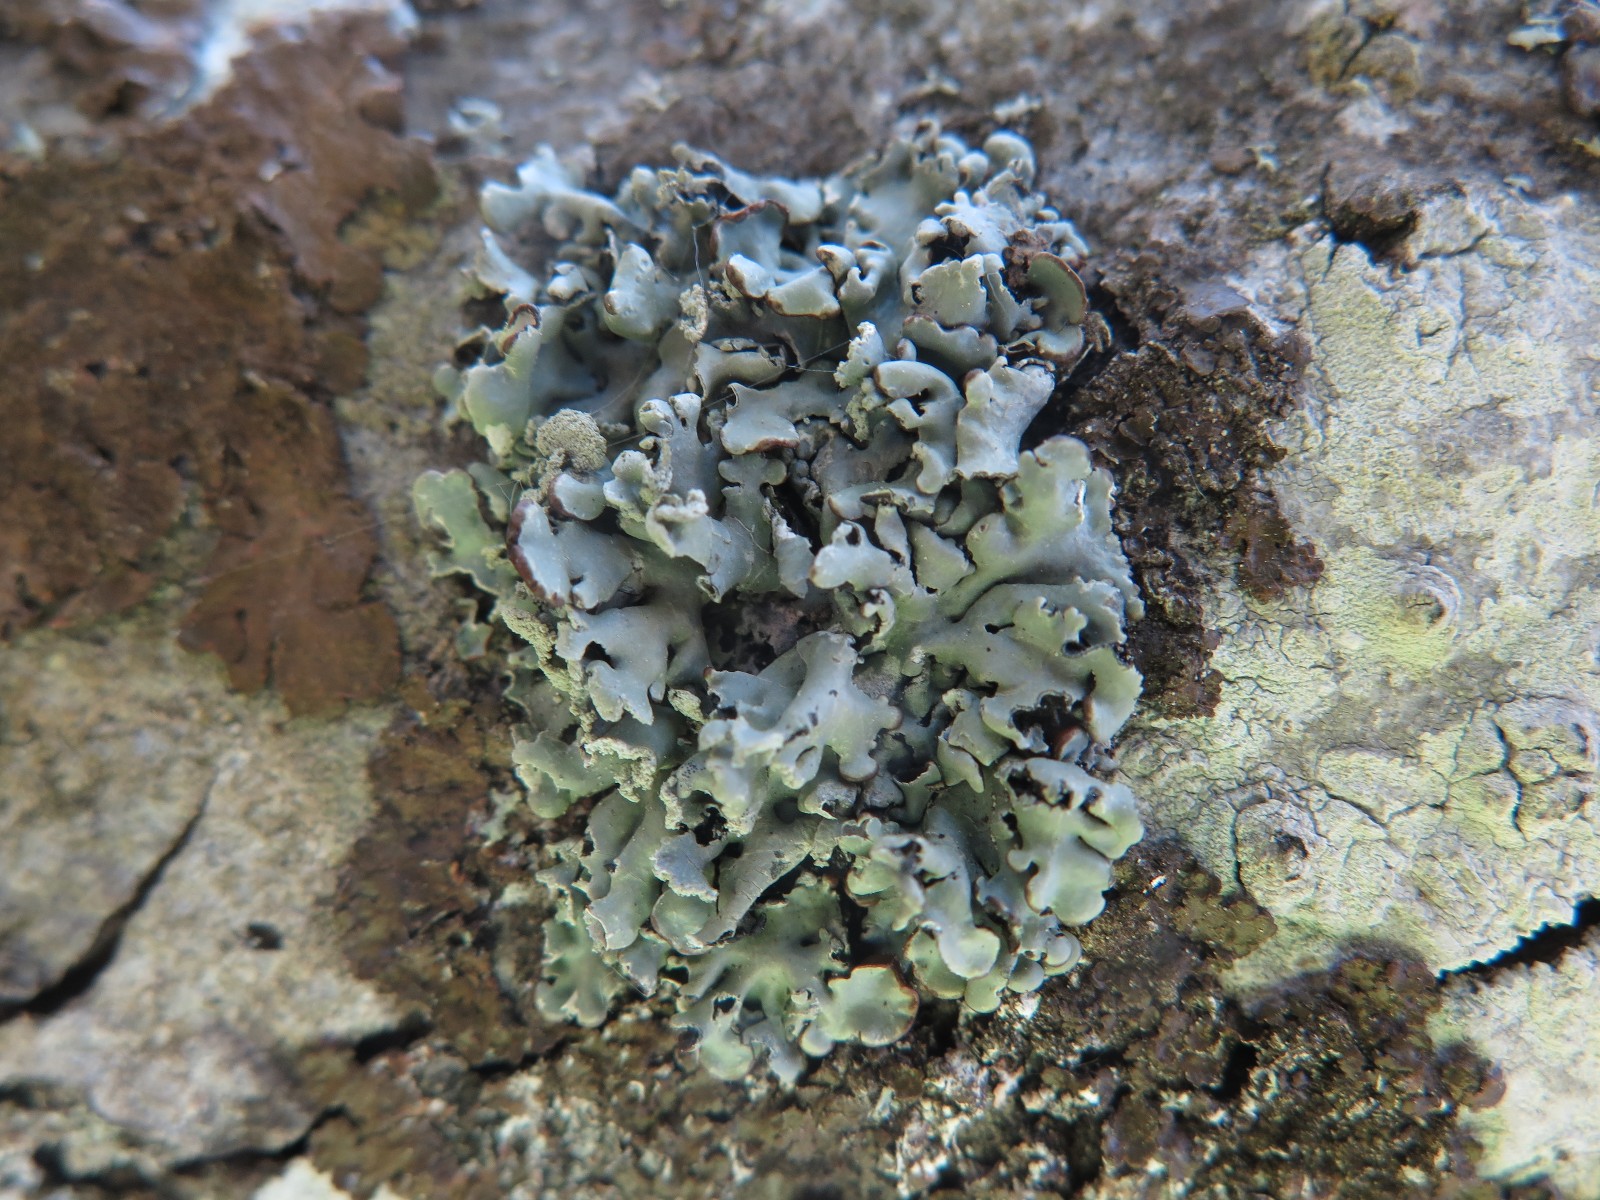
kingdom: Fungi
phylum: Ascomycota
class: Lecanoromycetes
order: Lecanorales
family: Parmeliaceae
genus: Hypogymnia
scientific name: Hypogymnia physodes
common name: almindelig kvistlav
